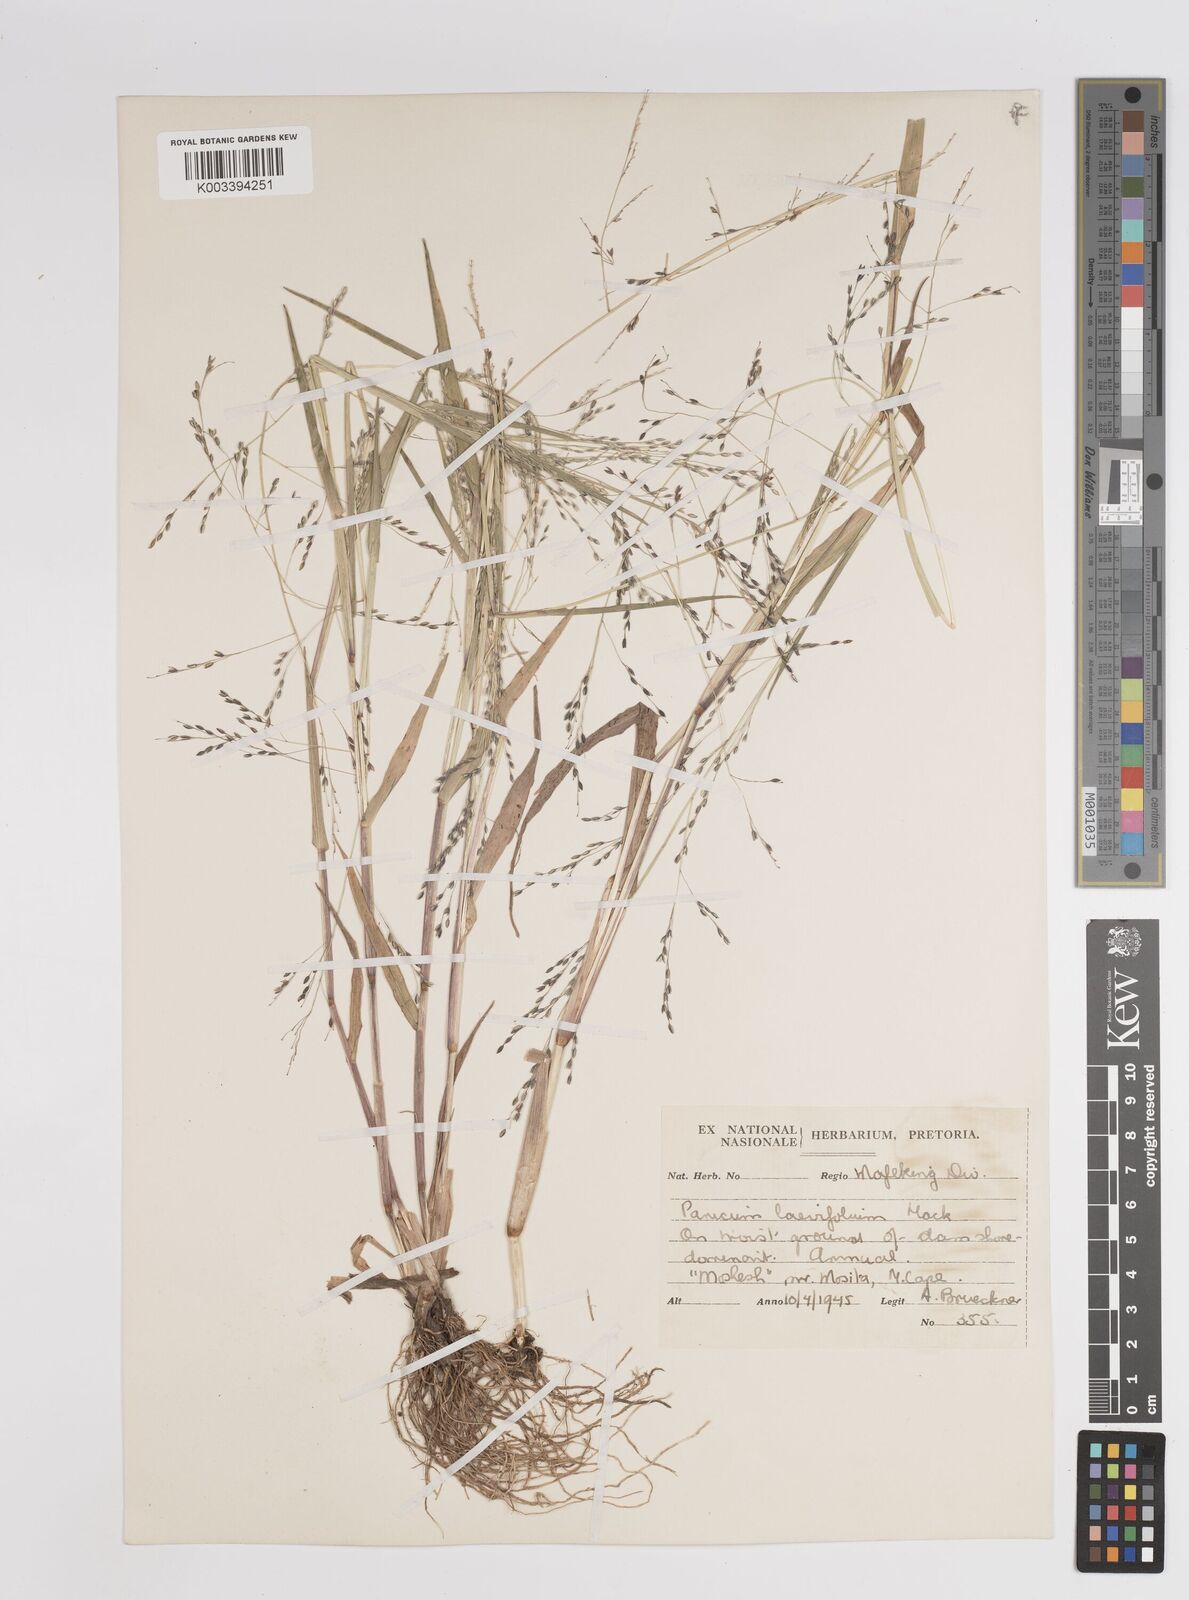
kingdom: Plantae
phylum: Tracheophyta
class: Liliopsida
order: Poales
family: Poaceae
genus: Panicum
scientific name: Panicum schinzii
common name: Sweet grass
